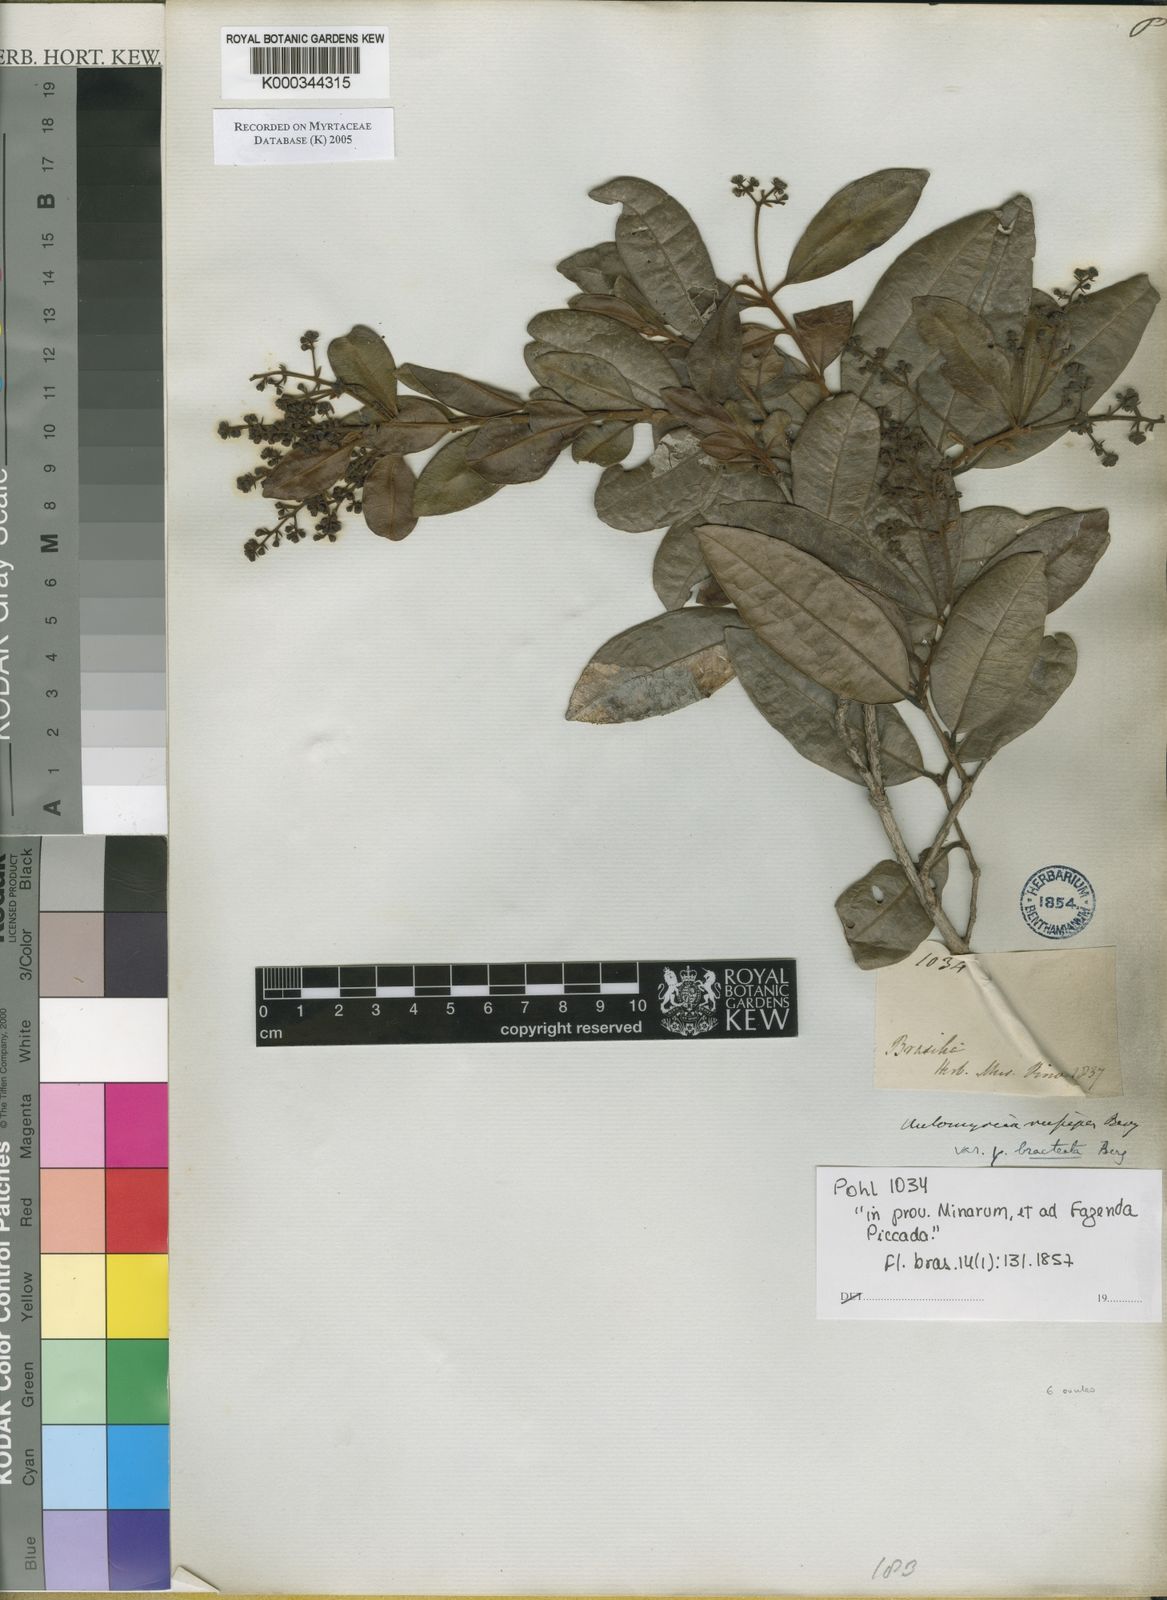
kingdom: Plantae
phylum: Tracheophyta
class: Magnoliopsida
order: Myrtales
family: Myrtaceae
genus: Myrcia
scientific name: Myrcia rufipes
